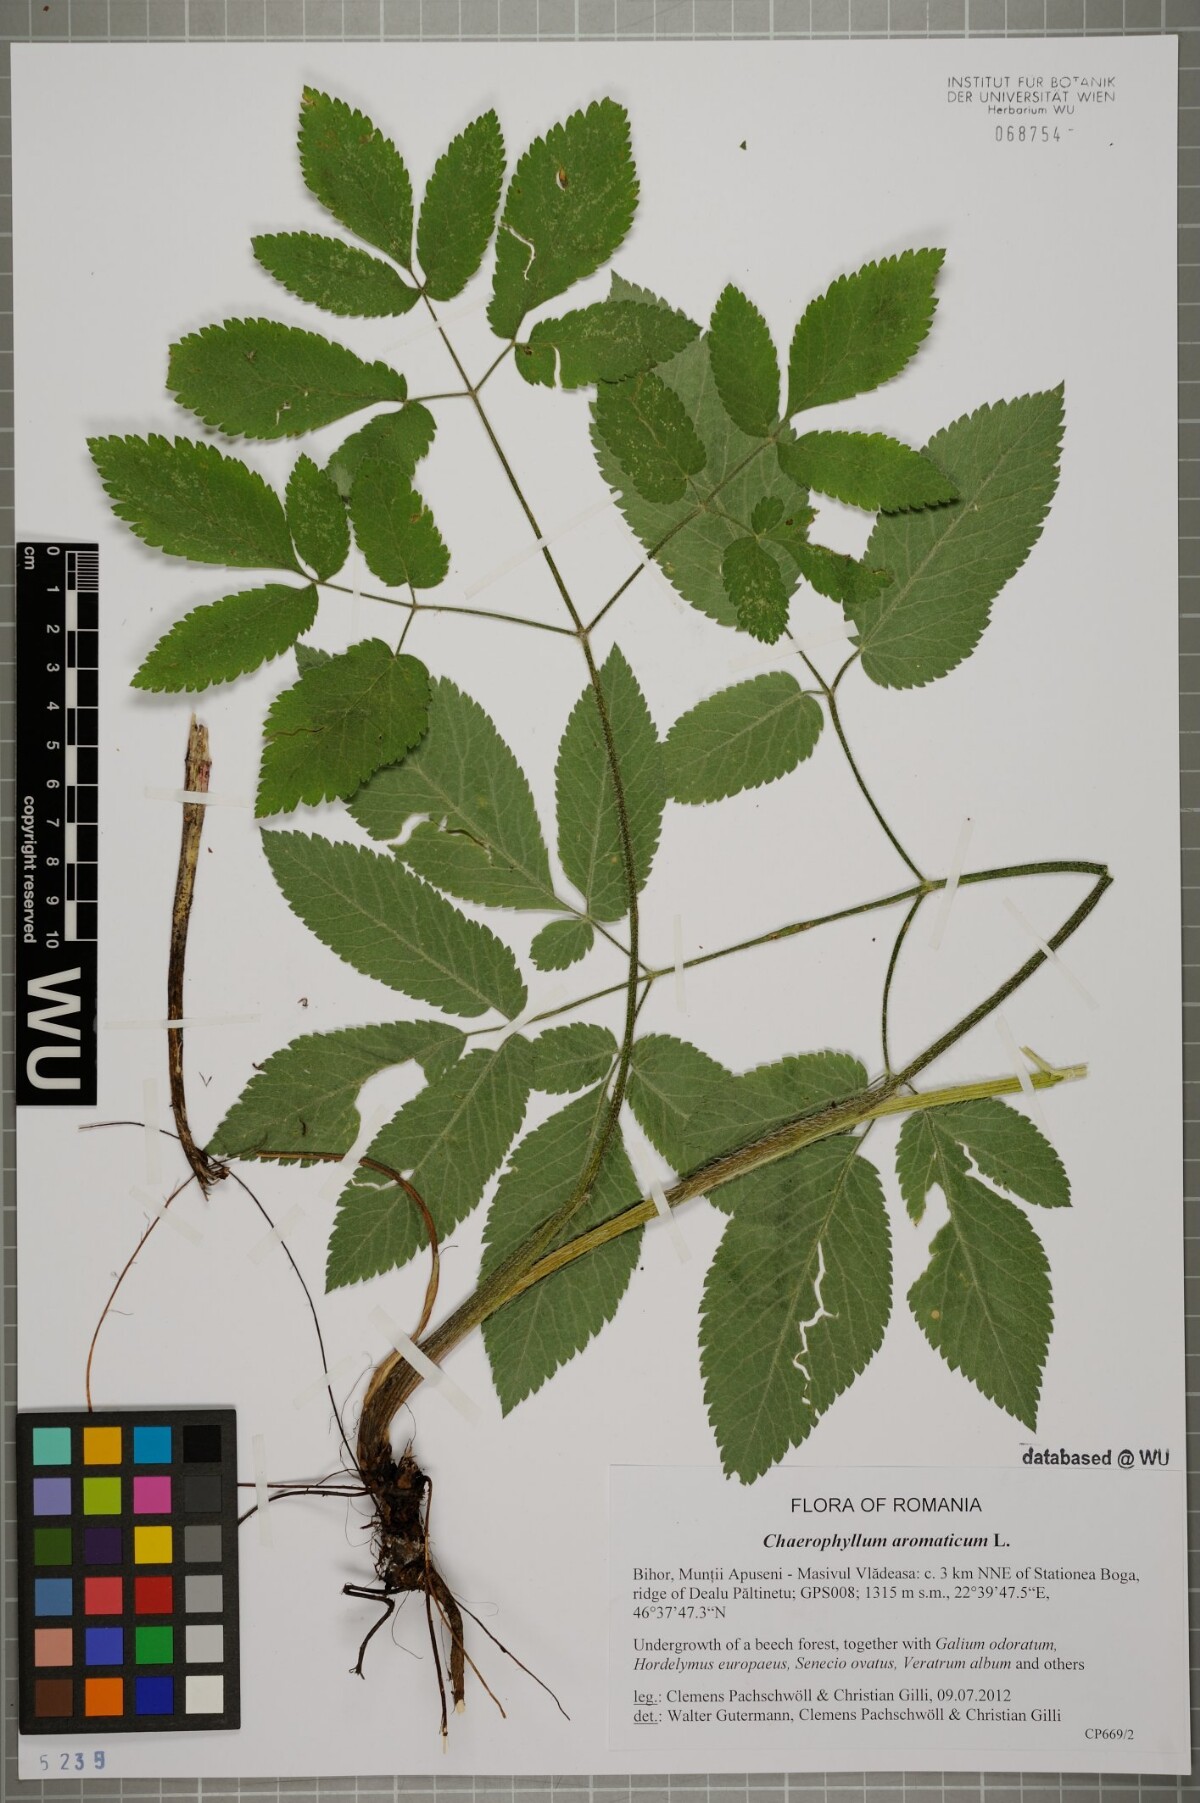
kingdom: Plantae
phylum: Tracheophyta
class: Magnoliopsida
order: Apiales
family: Apiaceae
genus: Chaerophyllum
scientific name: Chaerophyllum aromaticum
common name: Broadleaf chervil
